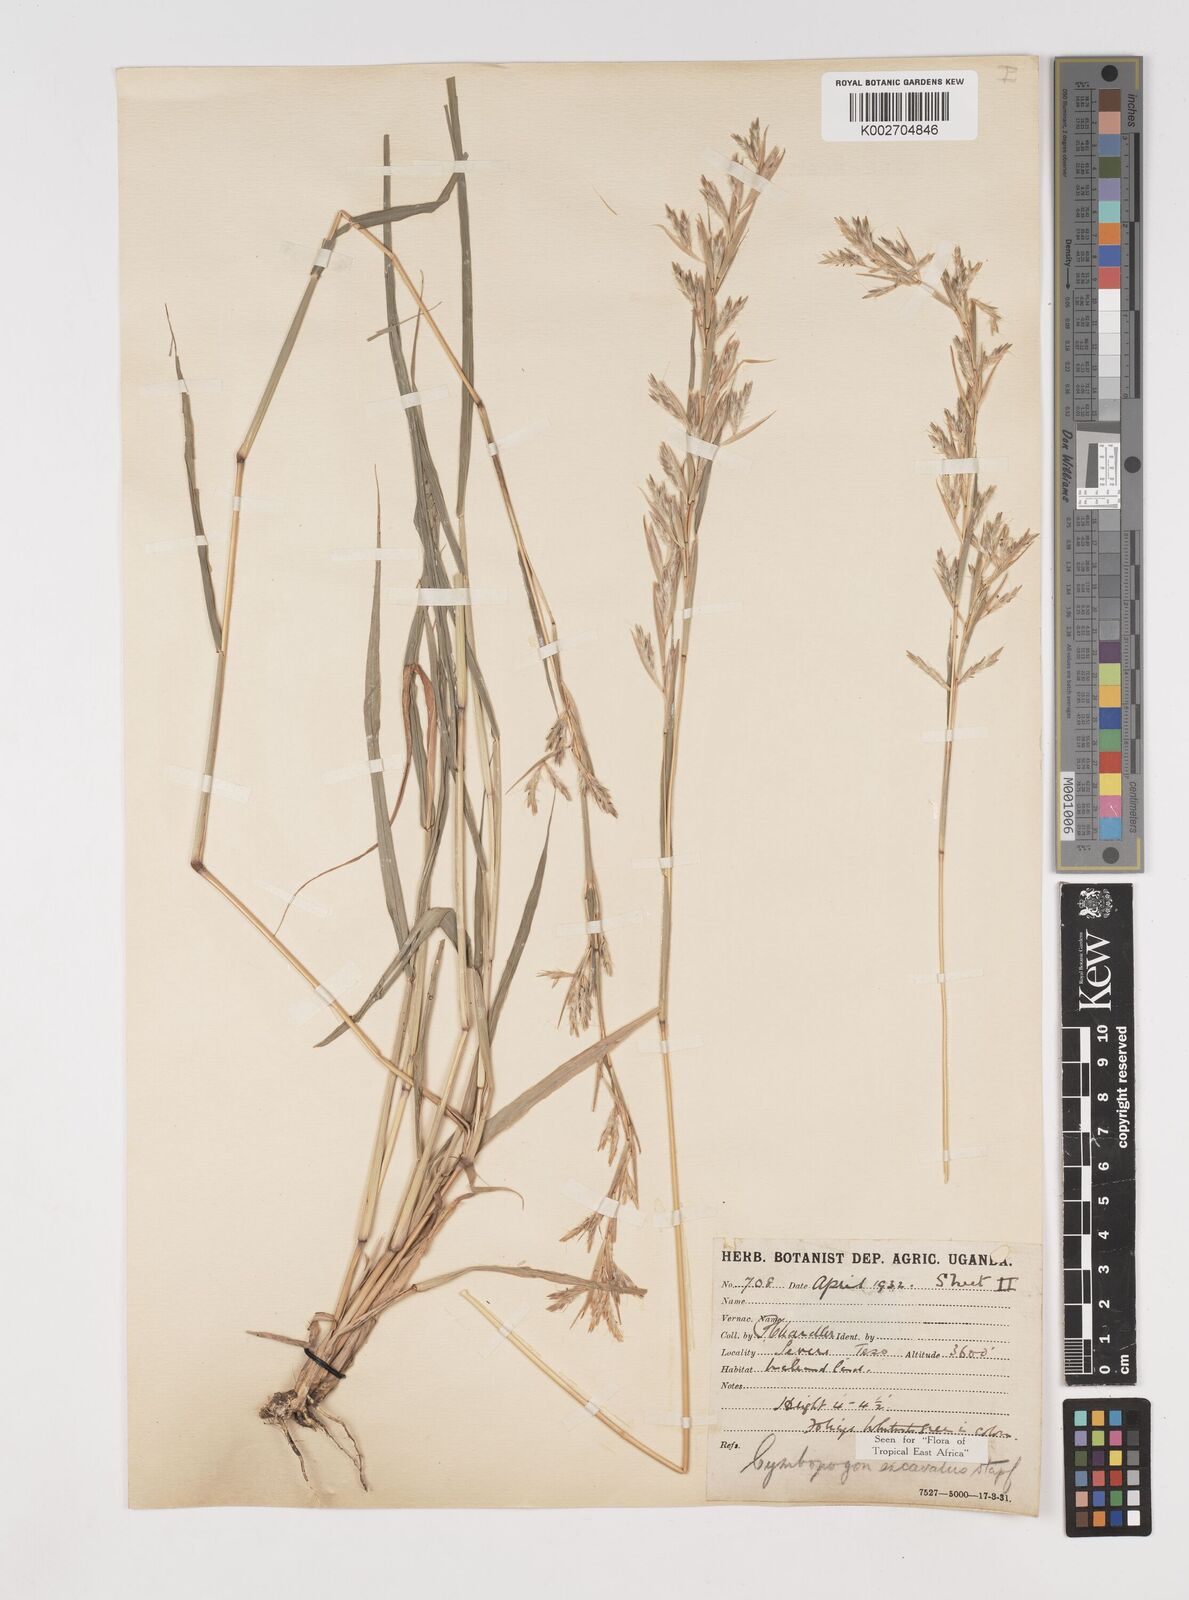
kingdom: Plantae
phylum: Tracheophyta
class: Liliopsida
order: Poales
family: Poaceae
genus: Cymbopogon
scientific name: Cymbopogon caesius
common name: Kachi grass
